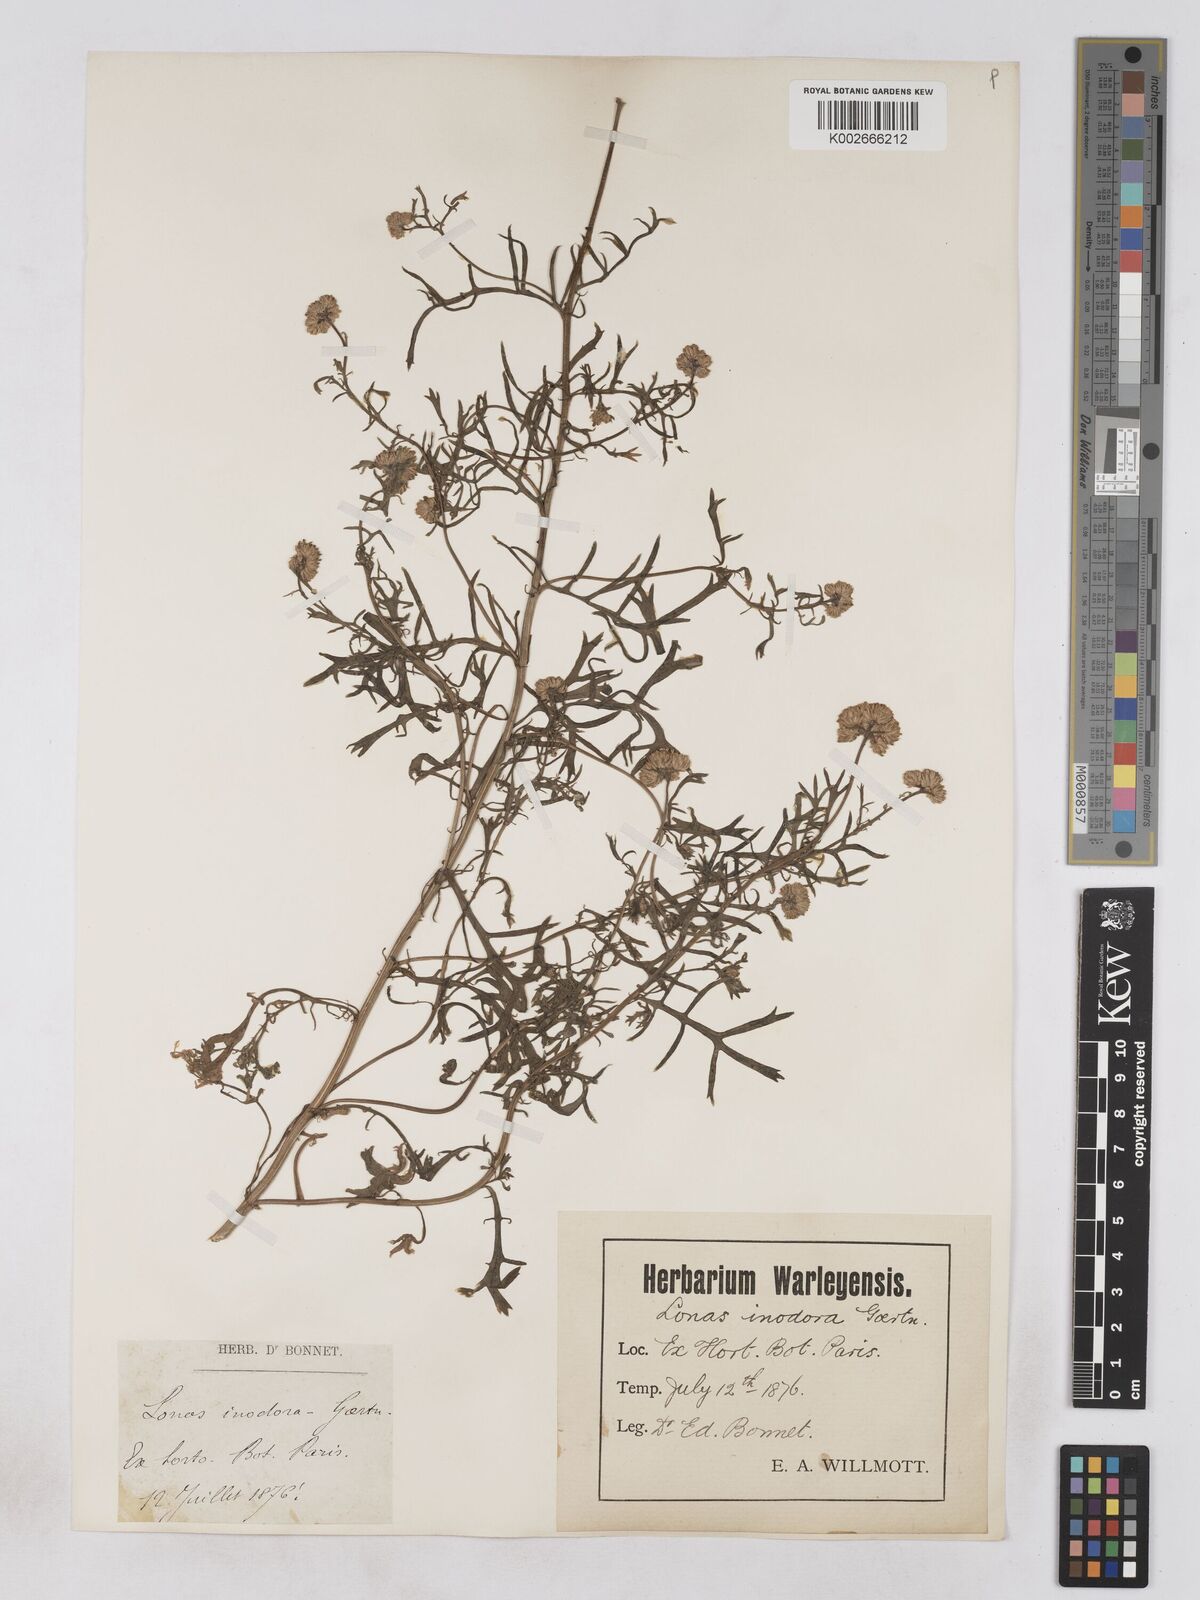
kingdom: Plantae
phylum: Tracheophyta
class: Magnoliopsida
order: Asterales
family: Asteraceae
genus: Lonas
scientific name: Lonas
